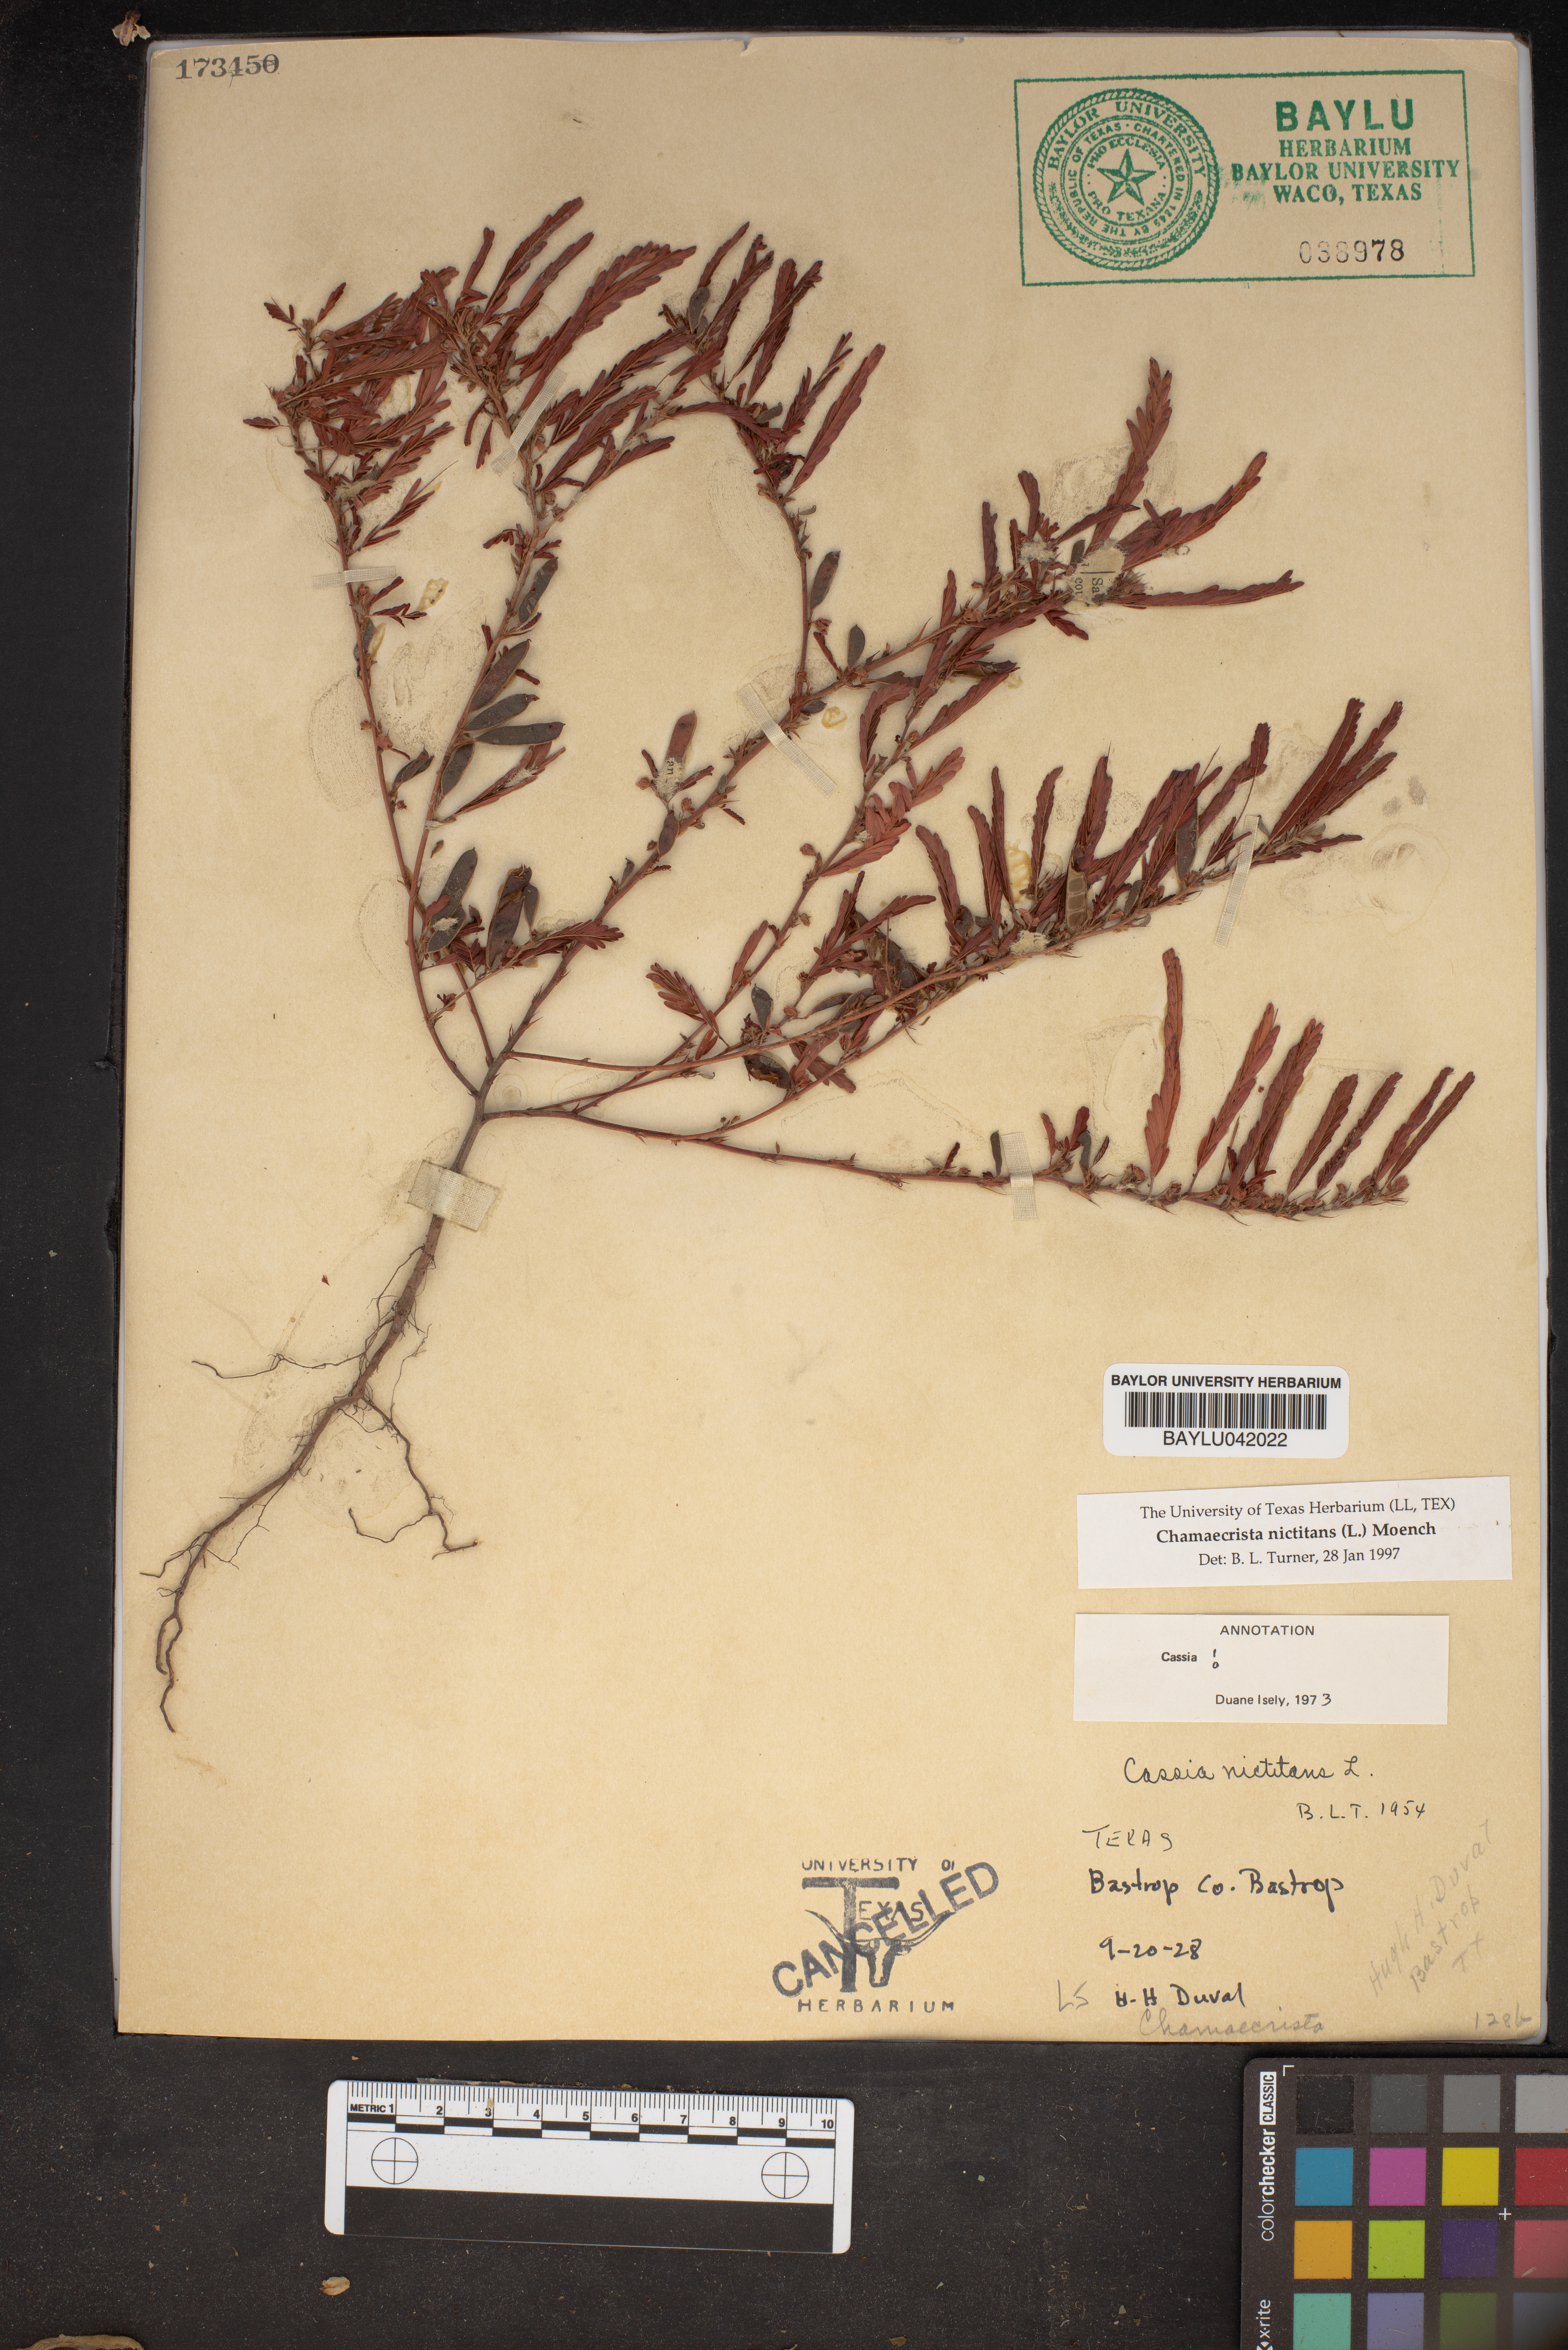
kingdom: Plantae
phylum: Tracheophyta
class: Magnoliopsida
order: Fabales
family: Fabaceae
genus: Chamaecrista
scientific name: Chamaecrista nictitans
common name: Sensitive cassia
